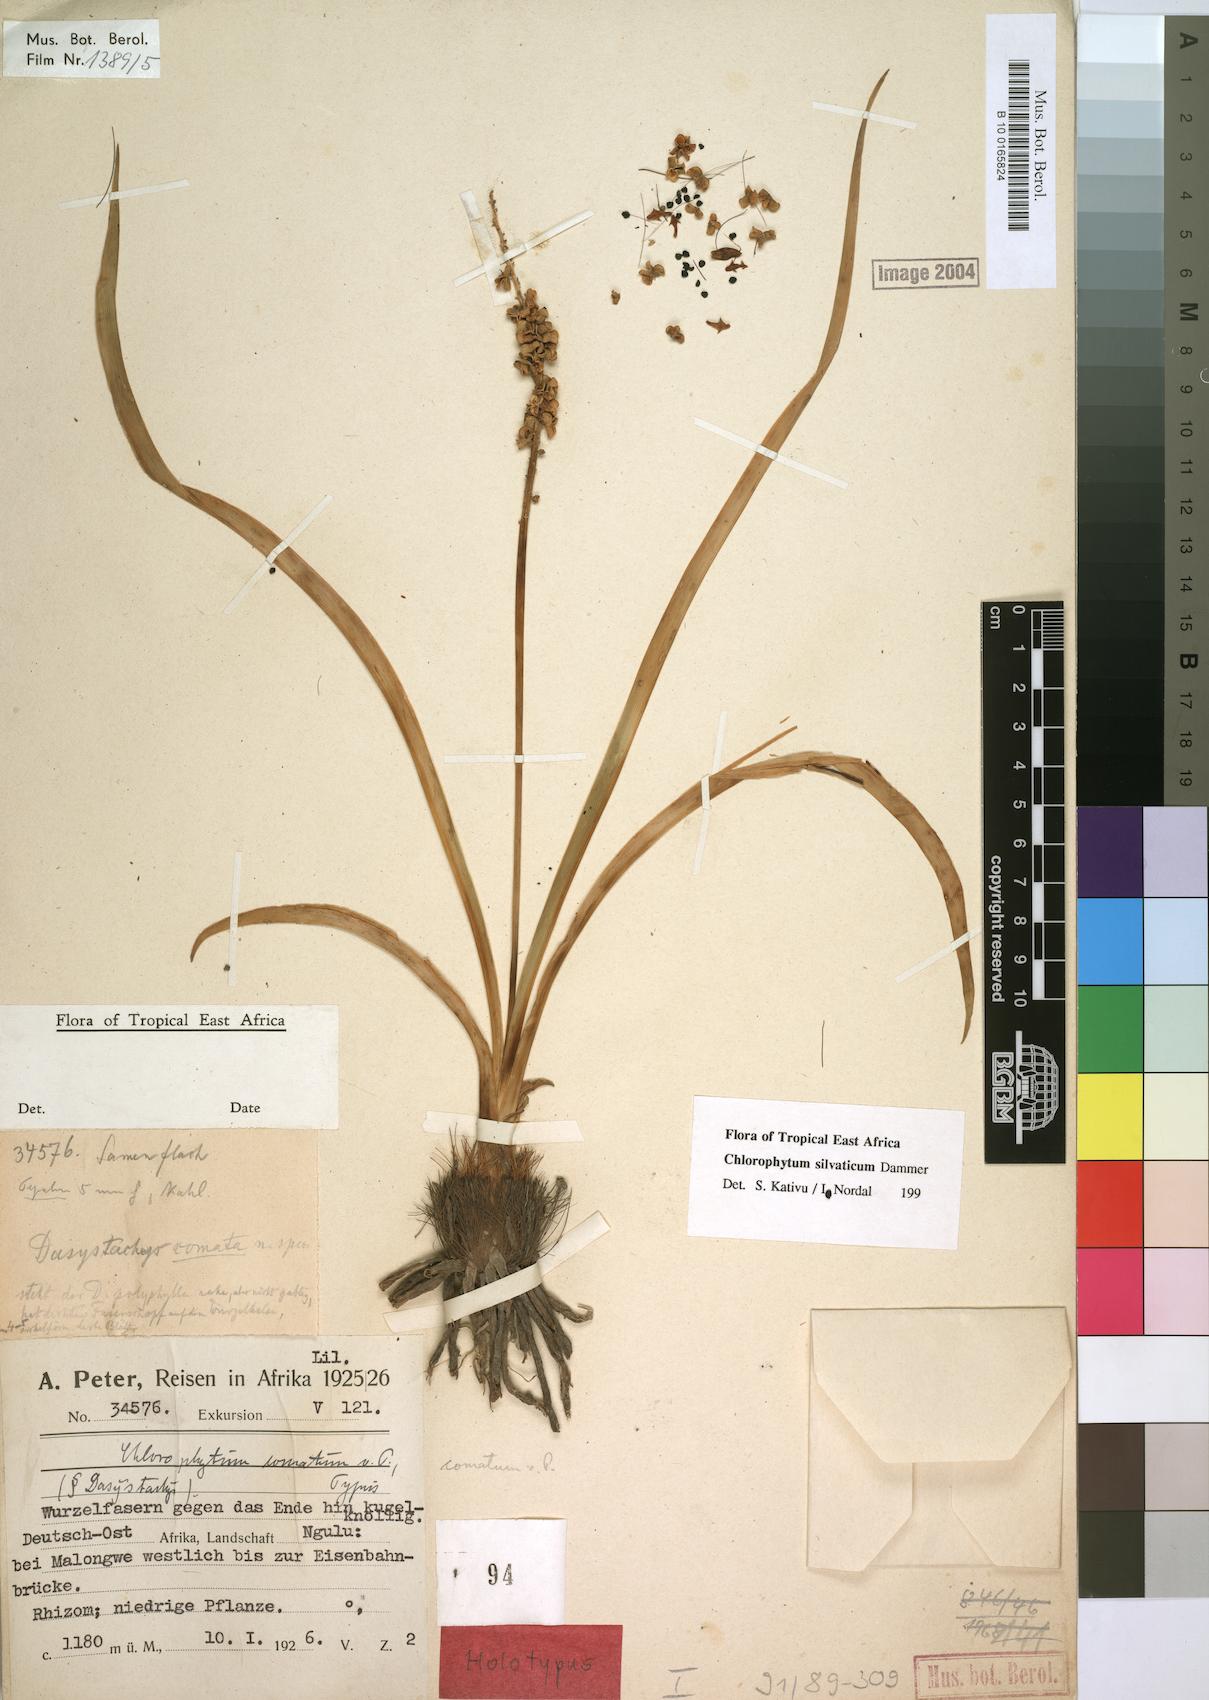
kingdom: Plantae
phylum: Tracheophyta
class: Liliopsida
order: Asparagales
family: Asparagaceae
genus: Chlorophytum
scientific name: Chlorophytum africanum
